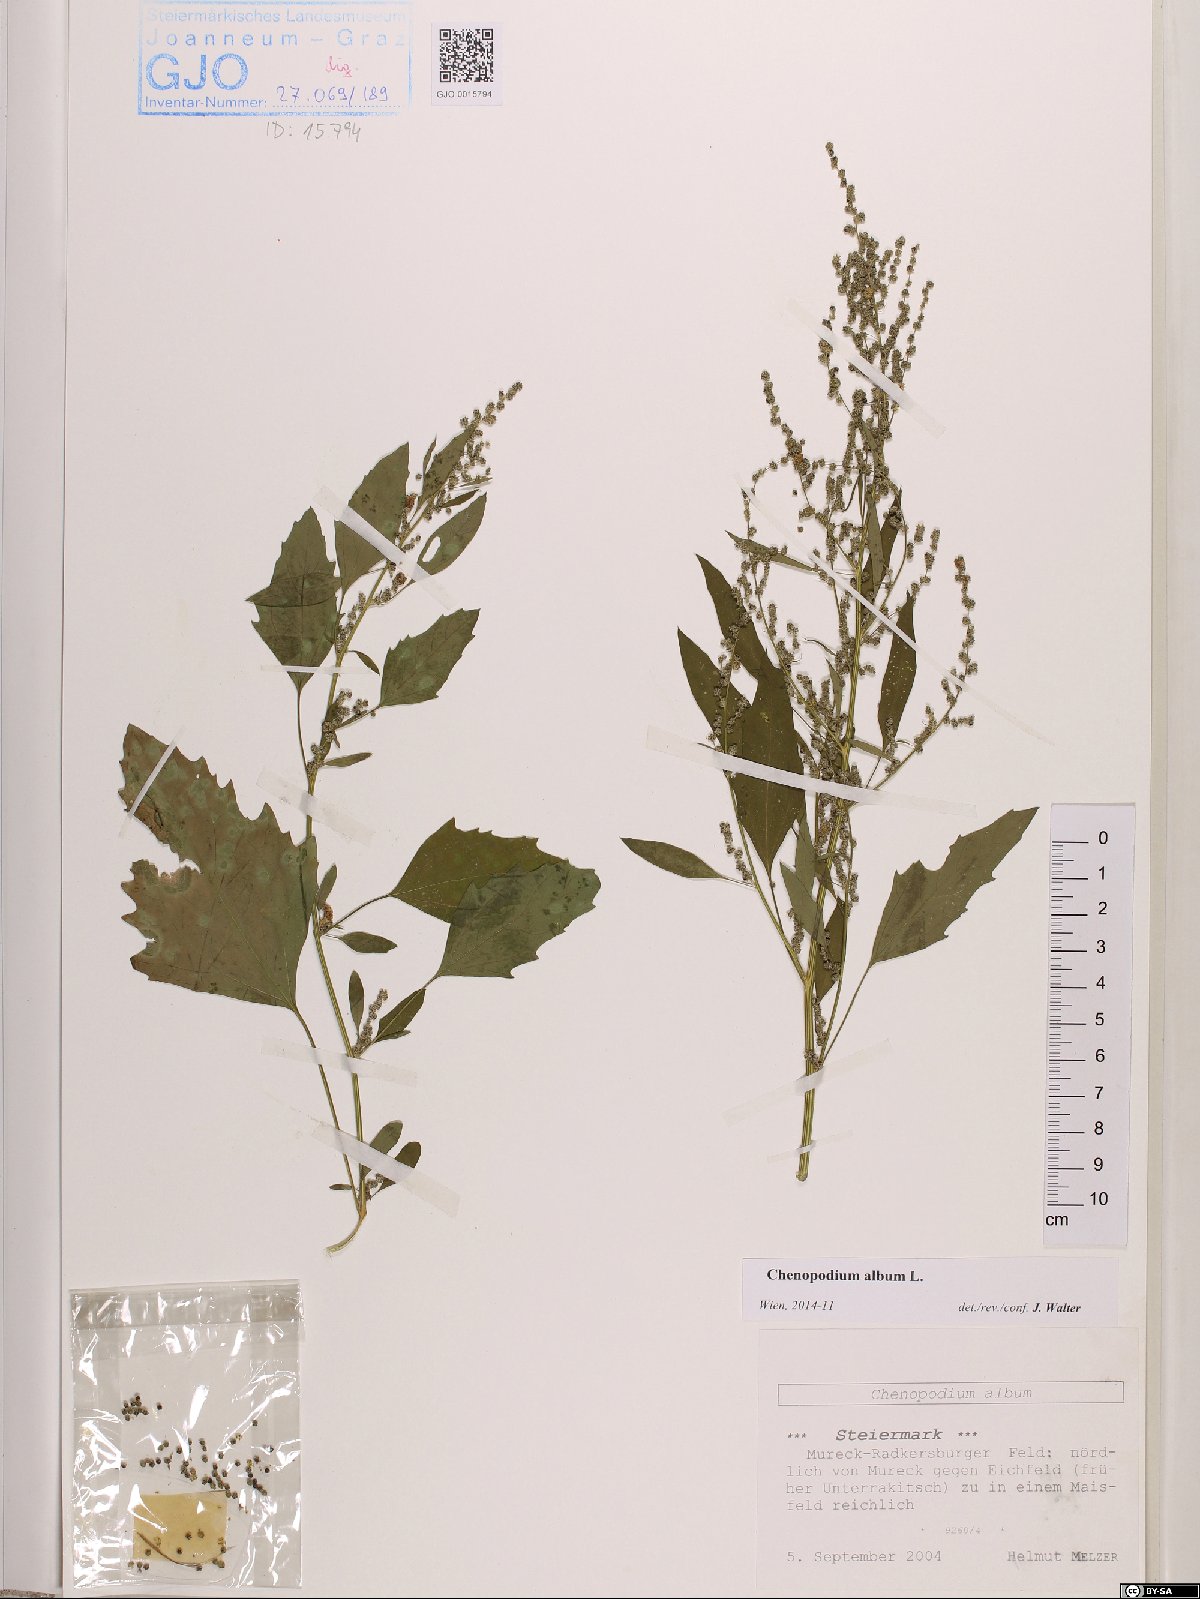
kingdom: Plantae
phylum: Tracheophyta
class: Magnoliopsida
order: Caryophyllales
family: Amaranthaceae
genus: Chenopodium
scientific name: Chenopodium album
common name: Fat-hen
